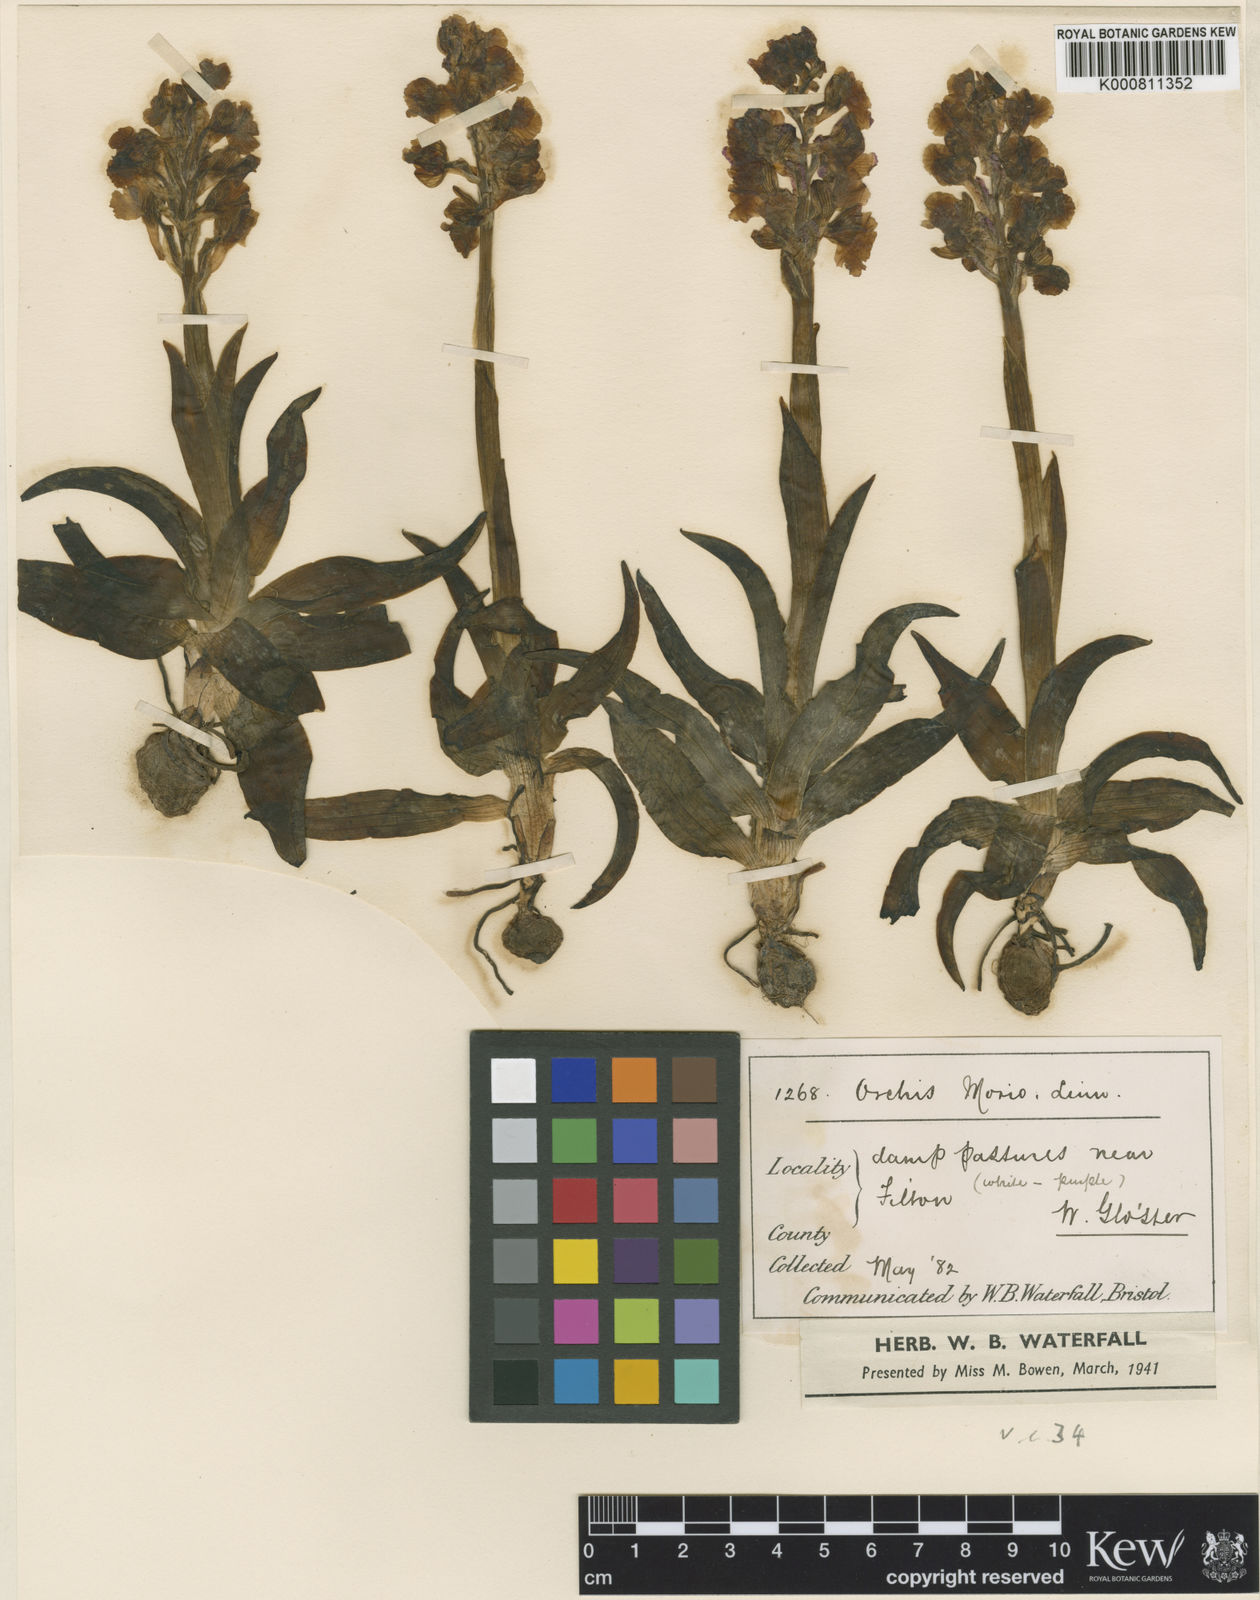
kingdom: Plantae
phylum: Tracheophyta
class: Liliopsida
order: Asparagales
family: Orchidaceae
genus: Anacamptis
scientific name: Anacamptis morio
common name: Green-winged orchid
